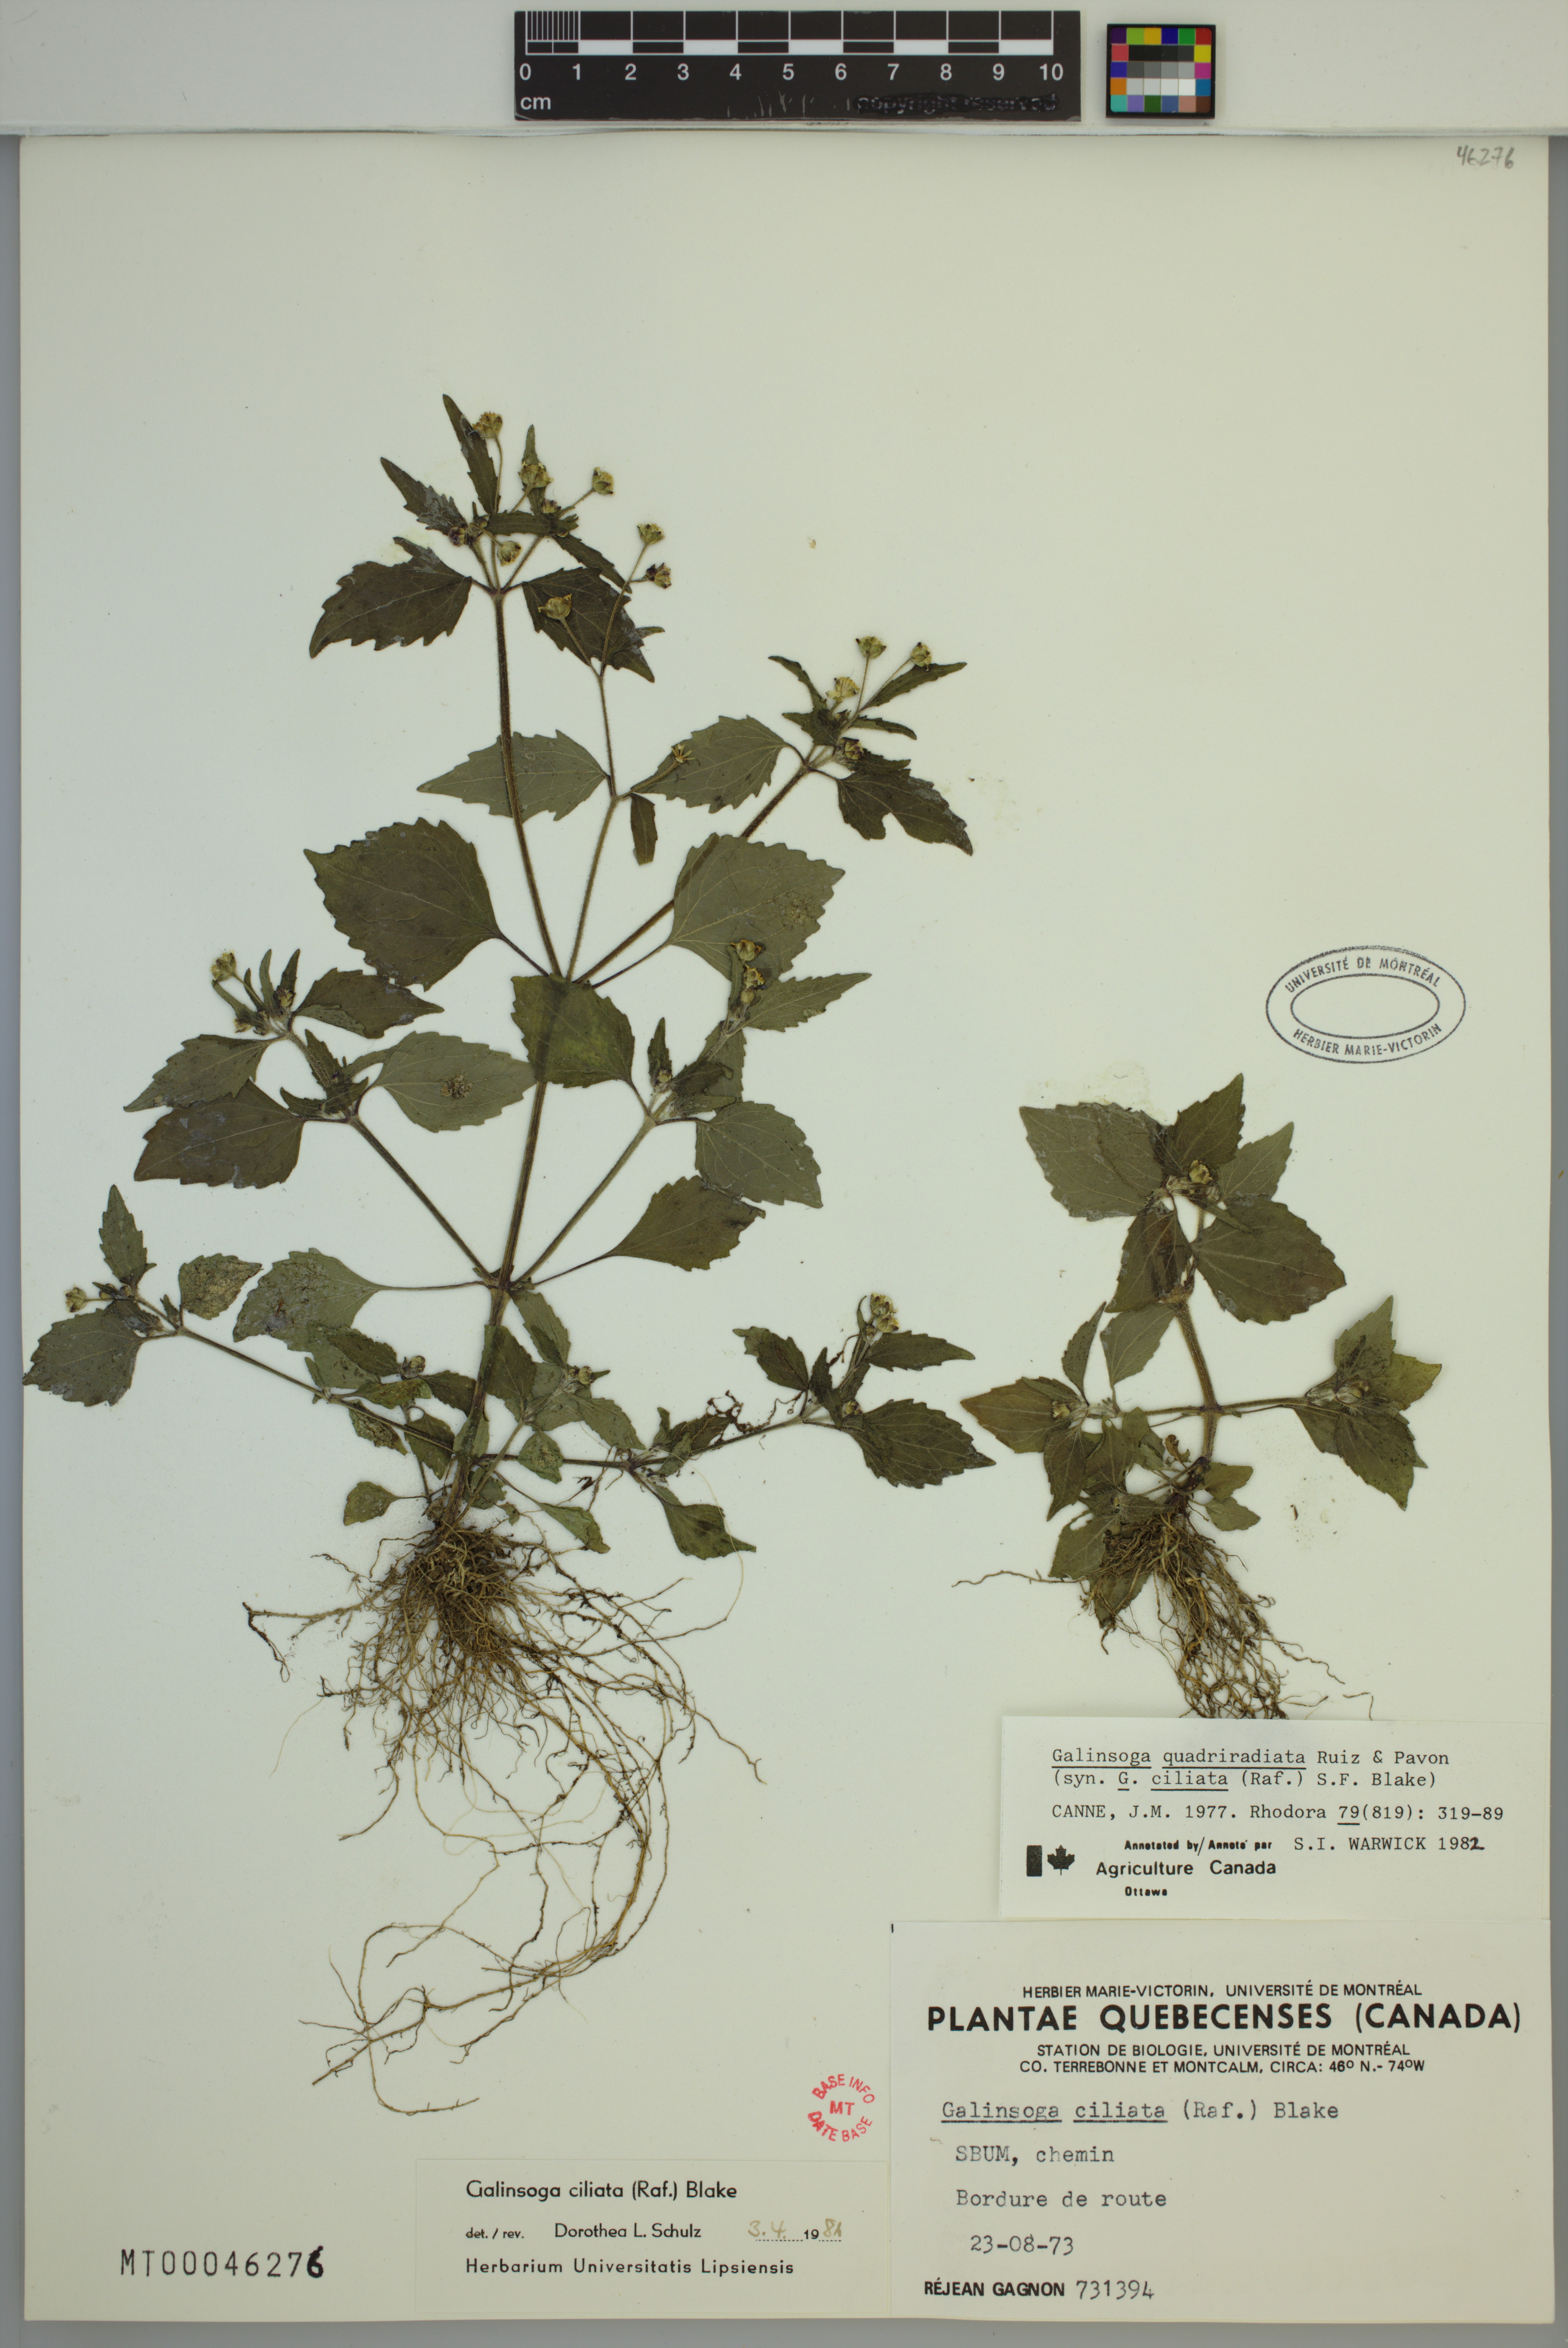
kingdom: Plantae
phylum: Tracheophyta
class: Magnoliopsida
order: Asterales
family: Asteraceae
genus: Galinsoga
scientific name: Galinsoga quadriradiata
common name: Shaggy soldier
